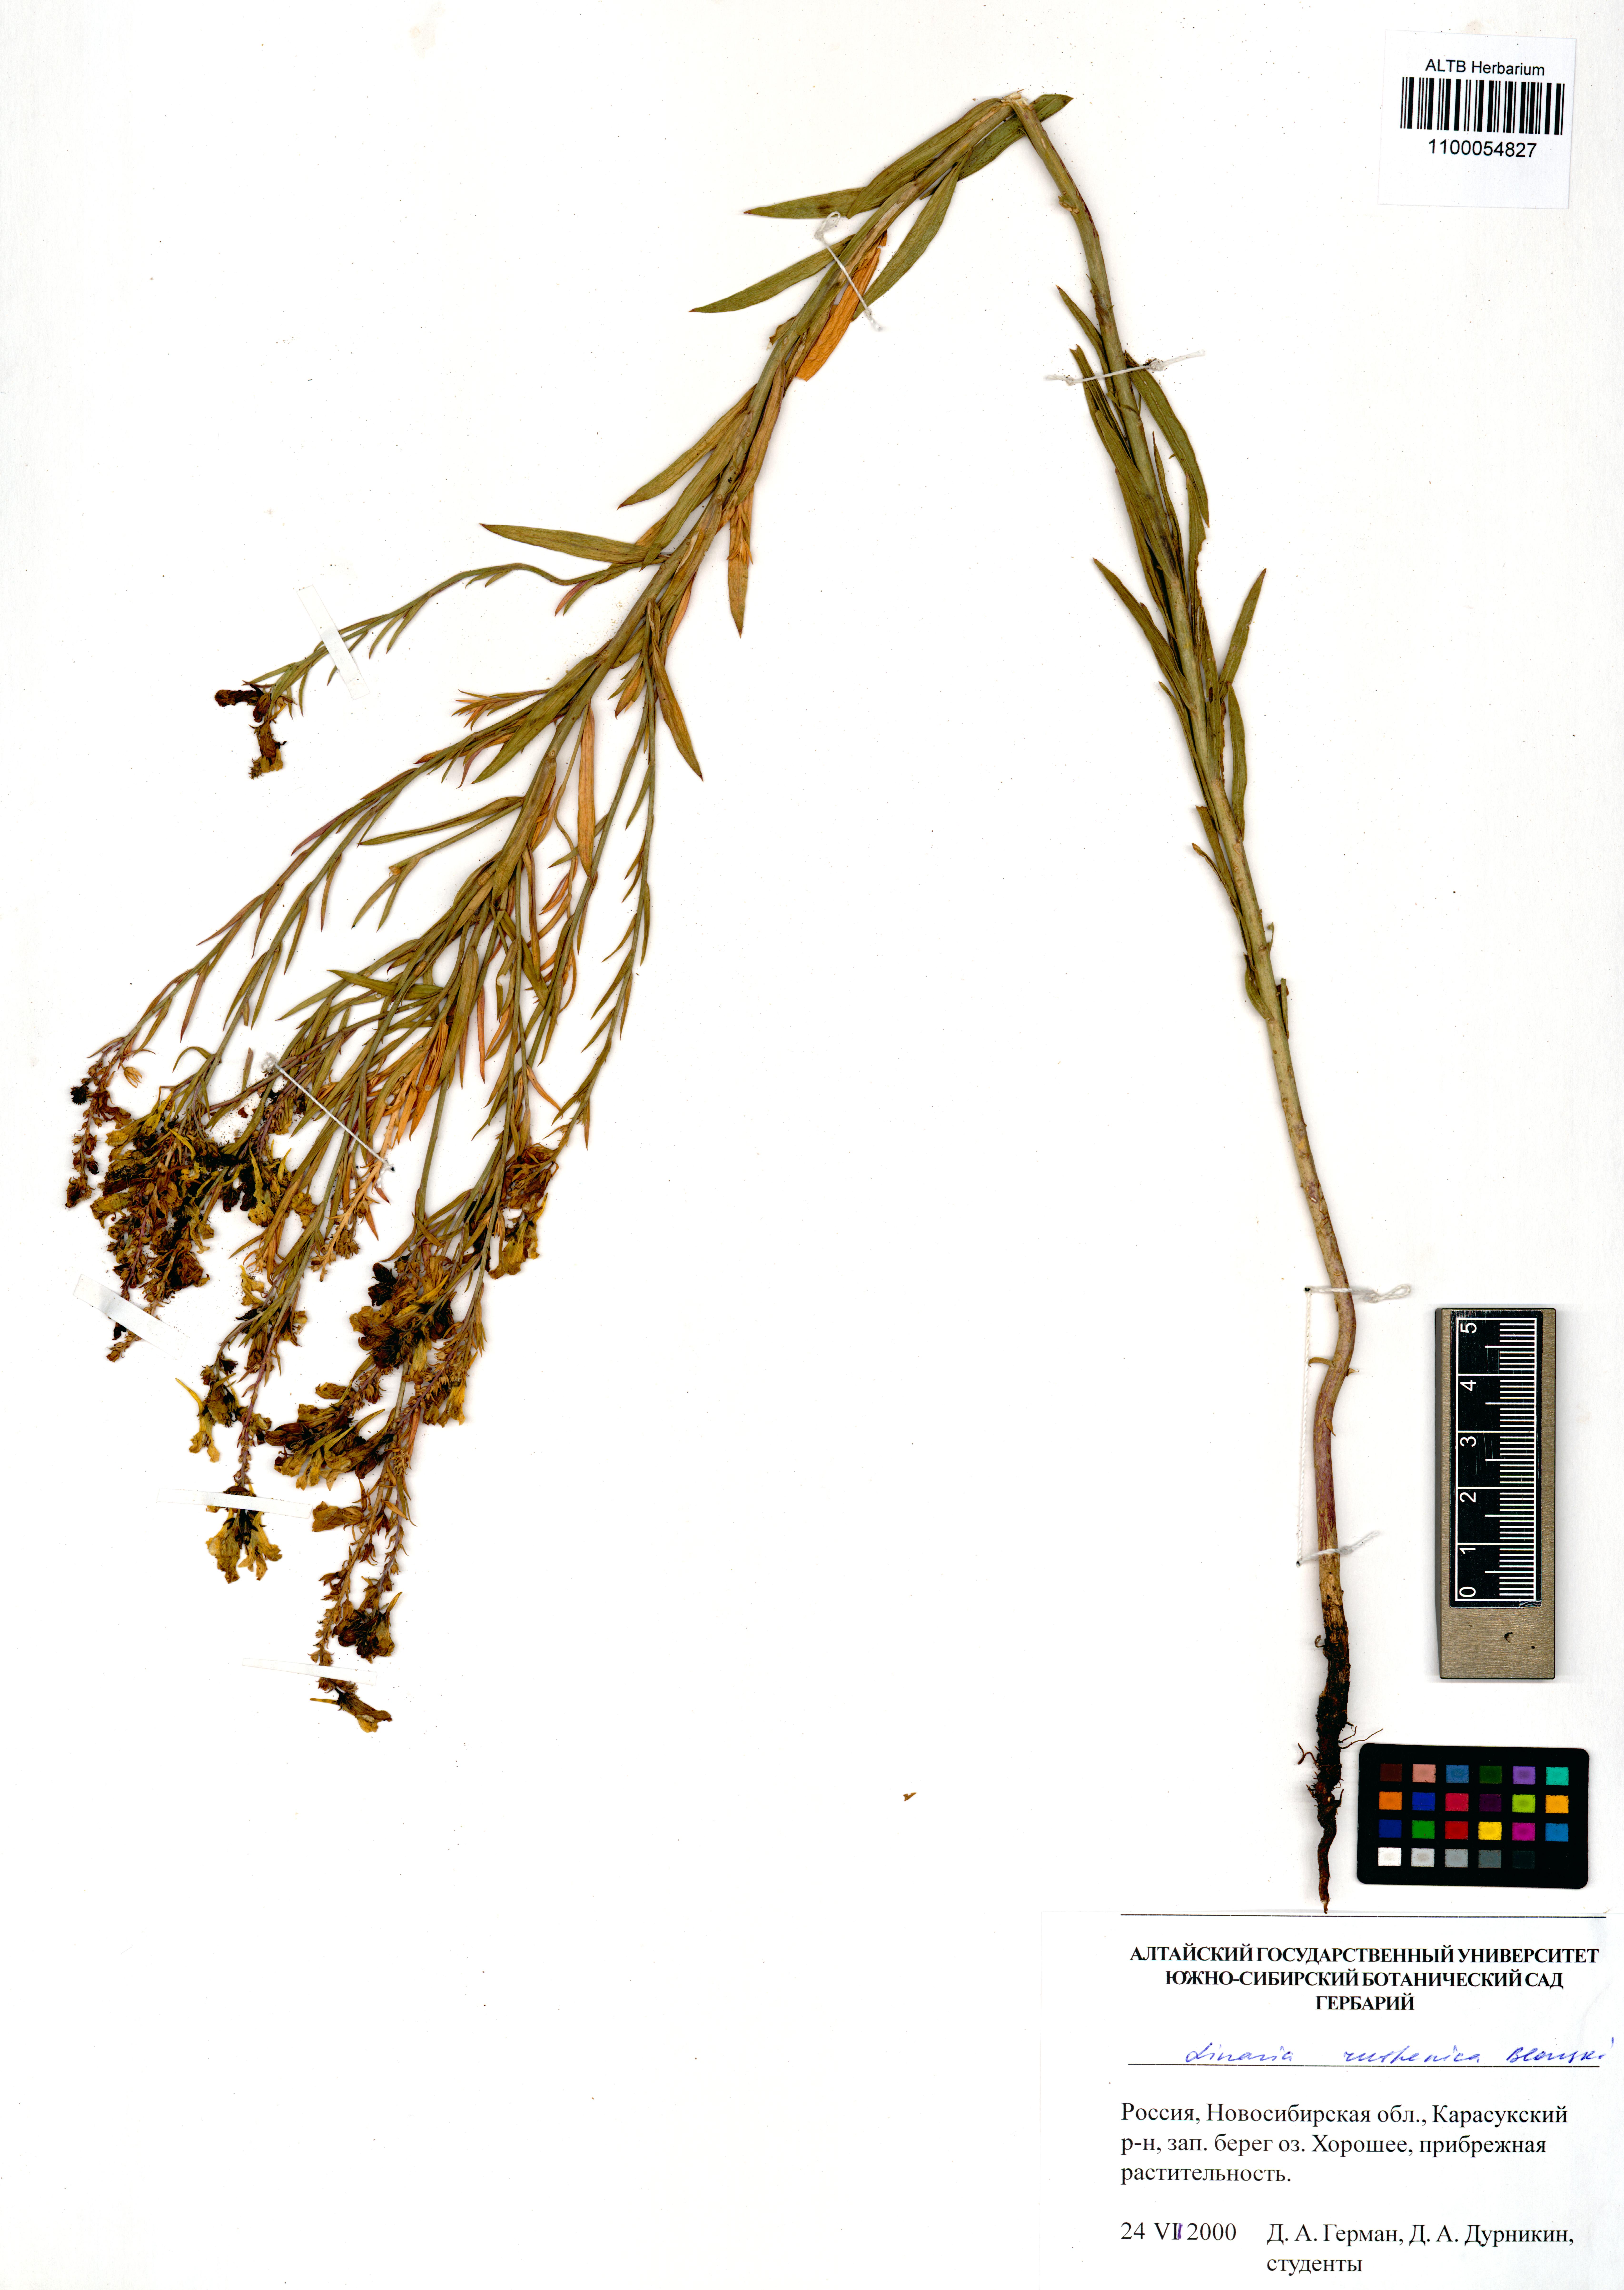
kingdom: Plantae
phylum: Tracheophyta
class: Magnoliopsida
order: Lamiales
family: Plantaginaceae
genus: Linaria
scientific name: Linaria biebersteinii
